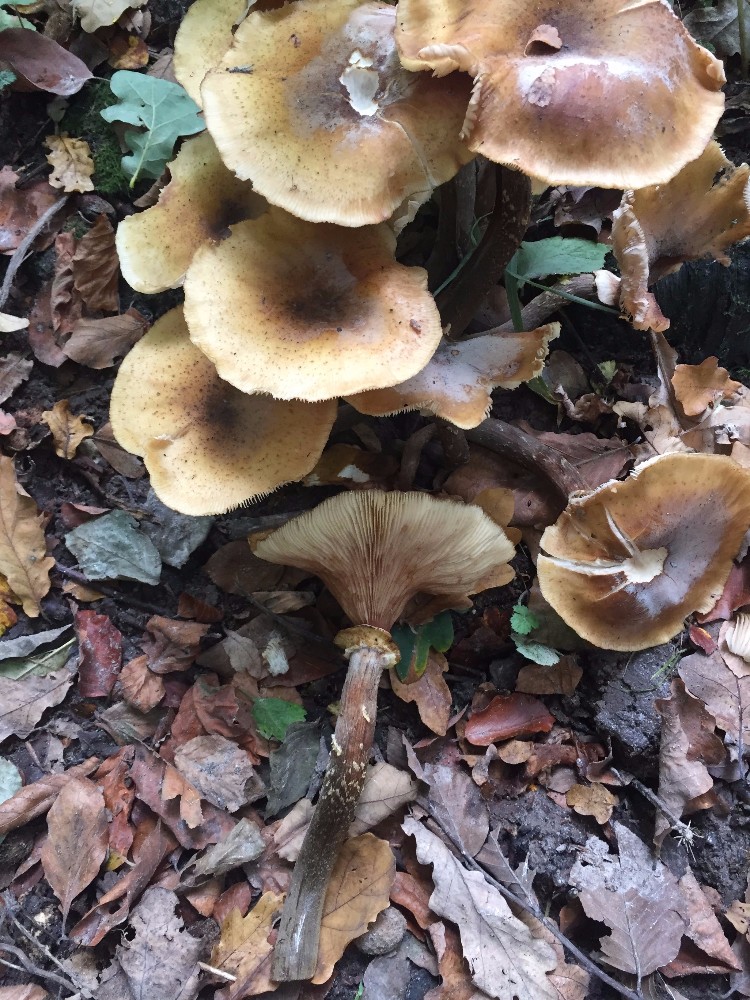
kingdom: Fungi
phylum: Basidiomycota
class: Agaricomycetes
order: Agaricales
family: Physalacriaceae
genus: Armillaria
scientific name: Armillaria mellea
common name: ægte honningsvamp
